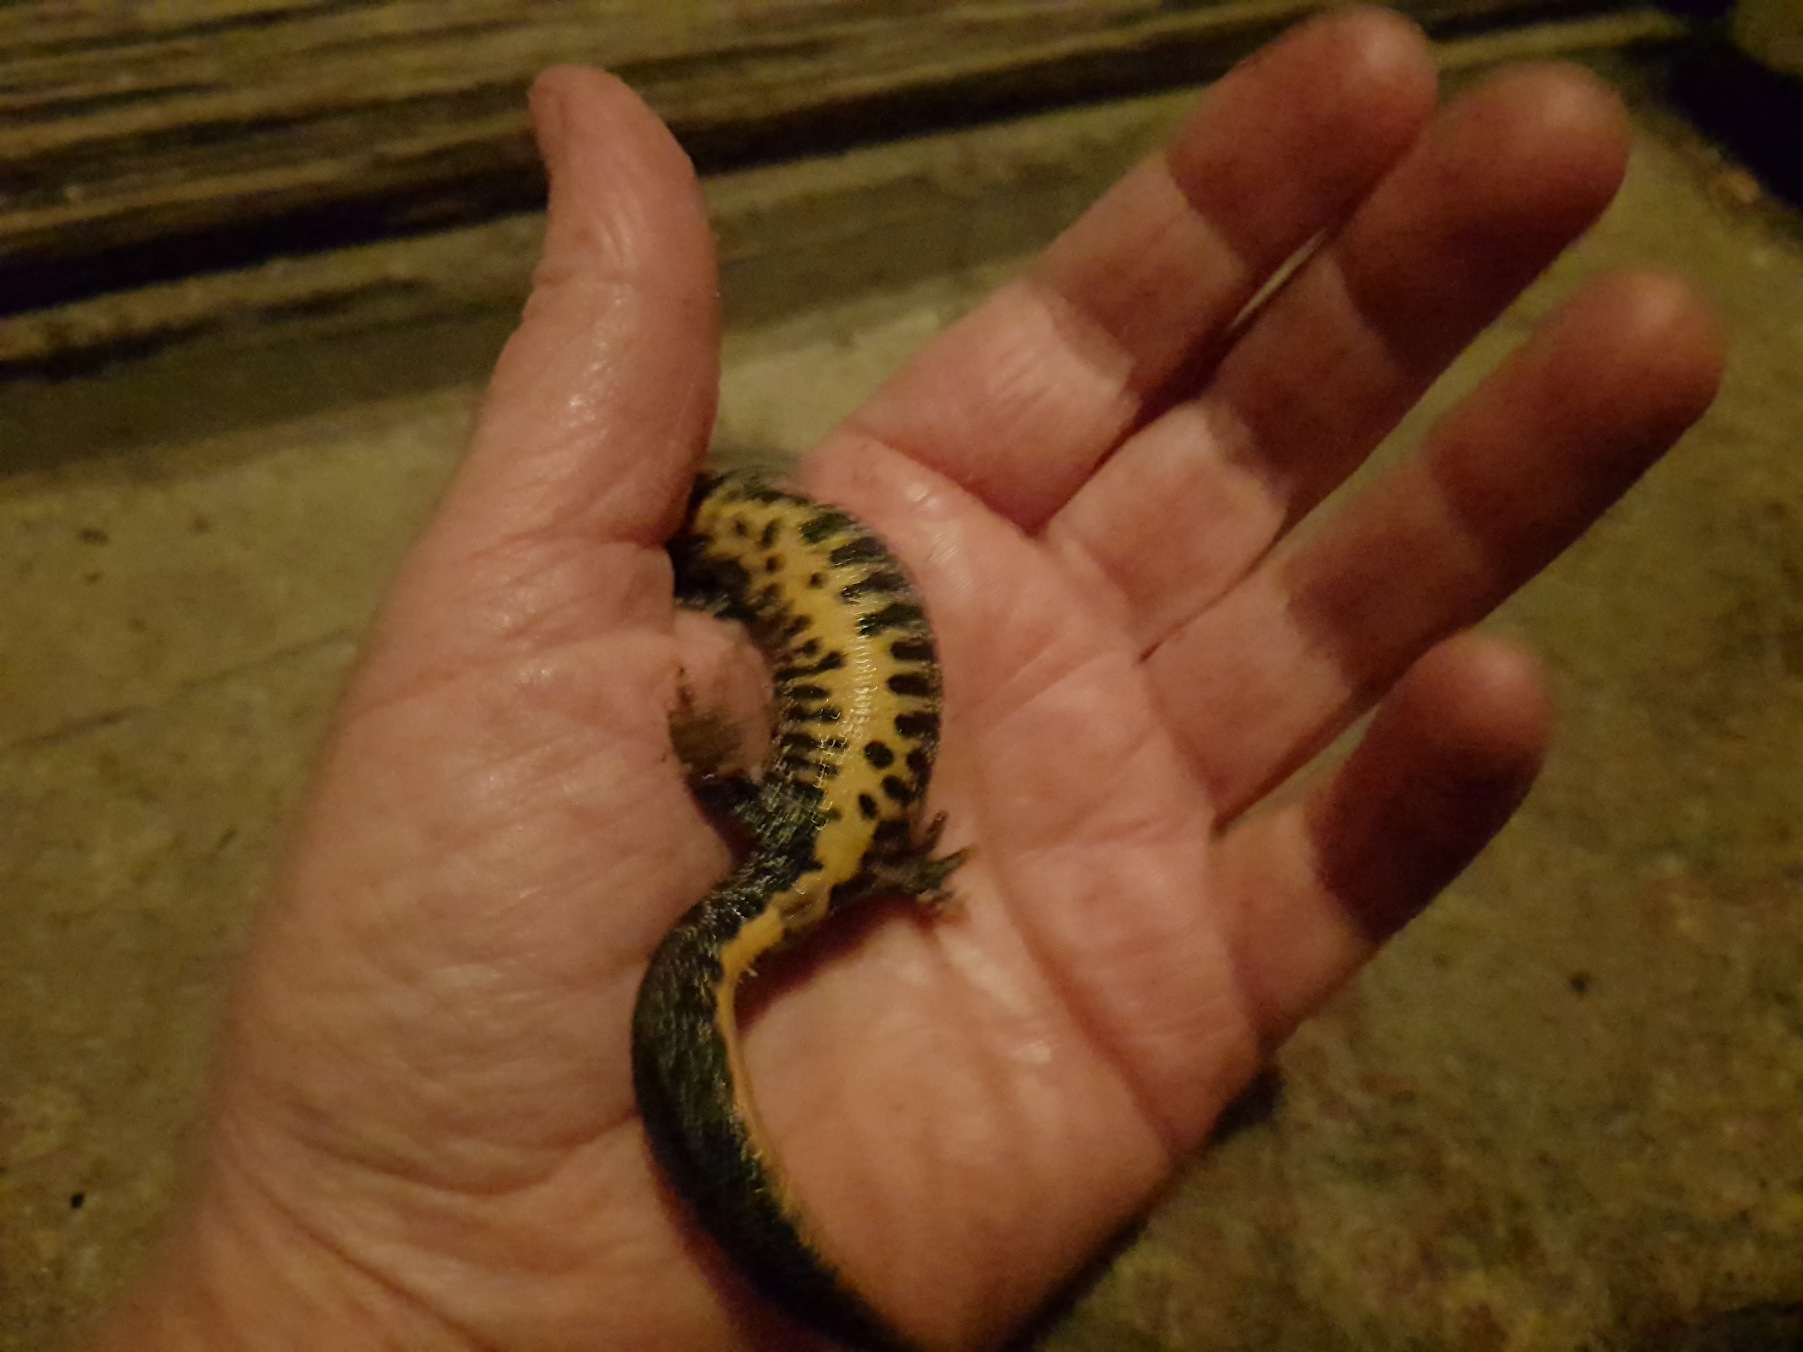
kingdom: Animalia
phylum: Chordata
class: Amphibia
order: Caudata
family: Salamandridae
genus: Triturus
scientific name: Triturus cristatus
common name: Stor vandsalamander
